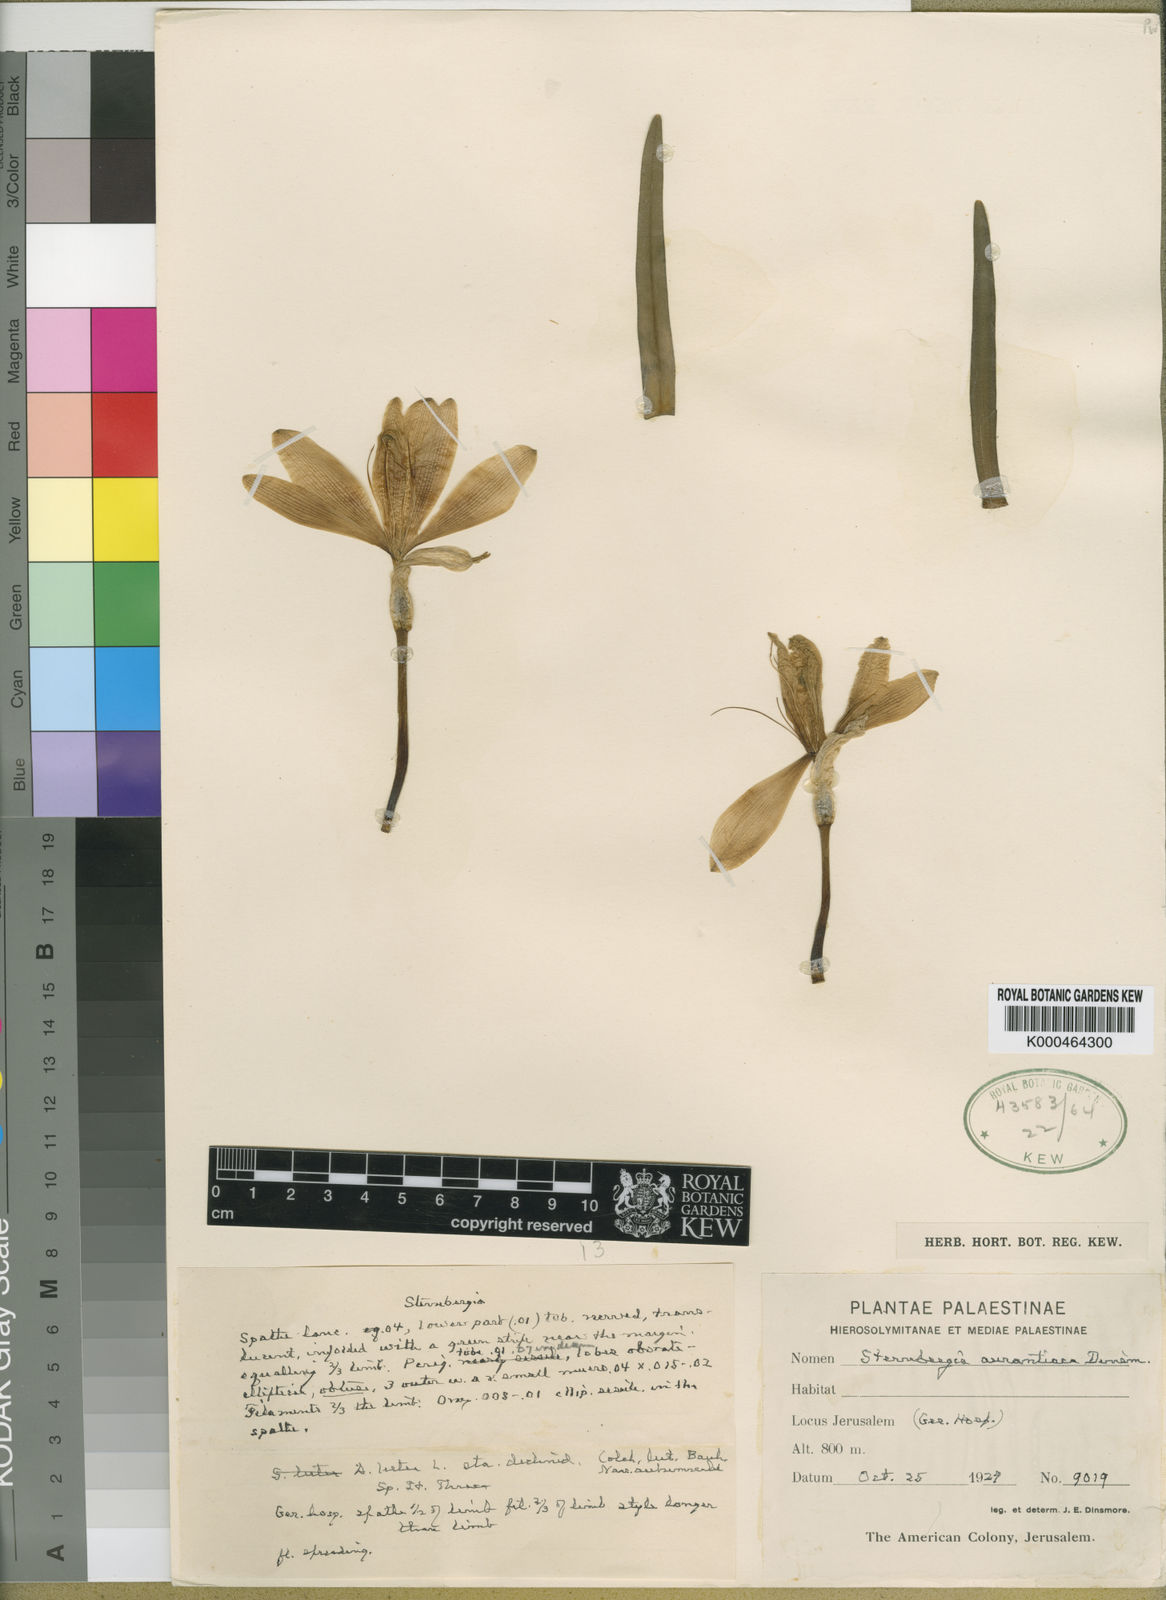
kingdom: Plantae
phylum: Tracheophyta
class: Liliopsida
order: Asparagales
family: Amaryllidaceae
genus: Sternbergia
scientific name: Sternbergia
